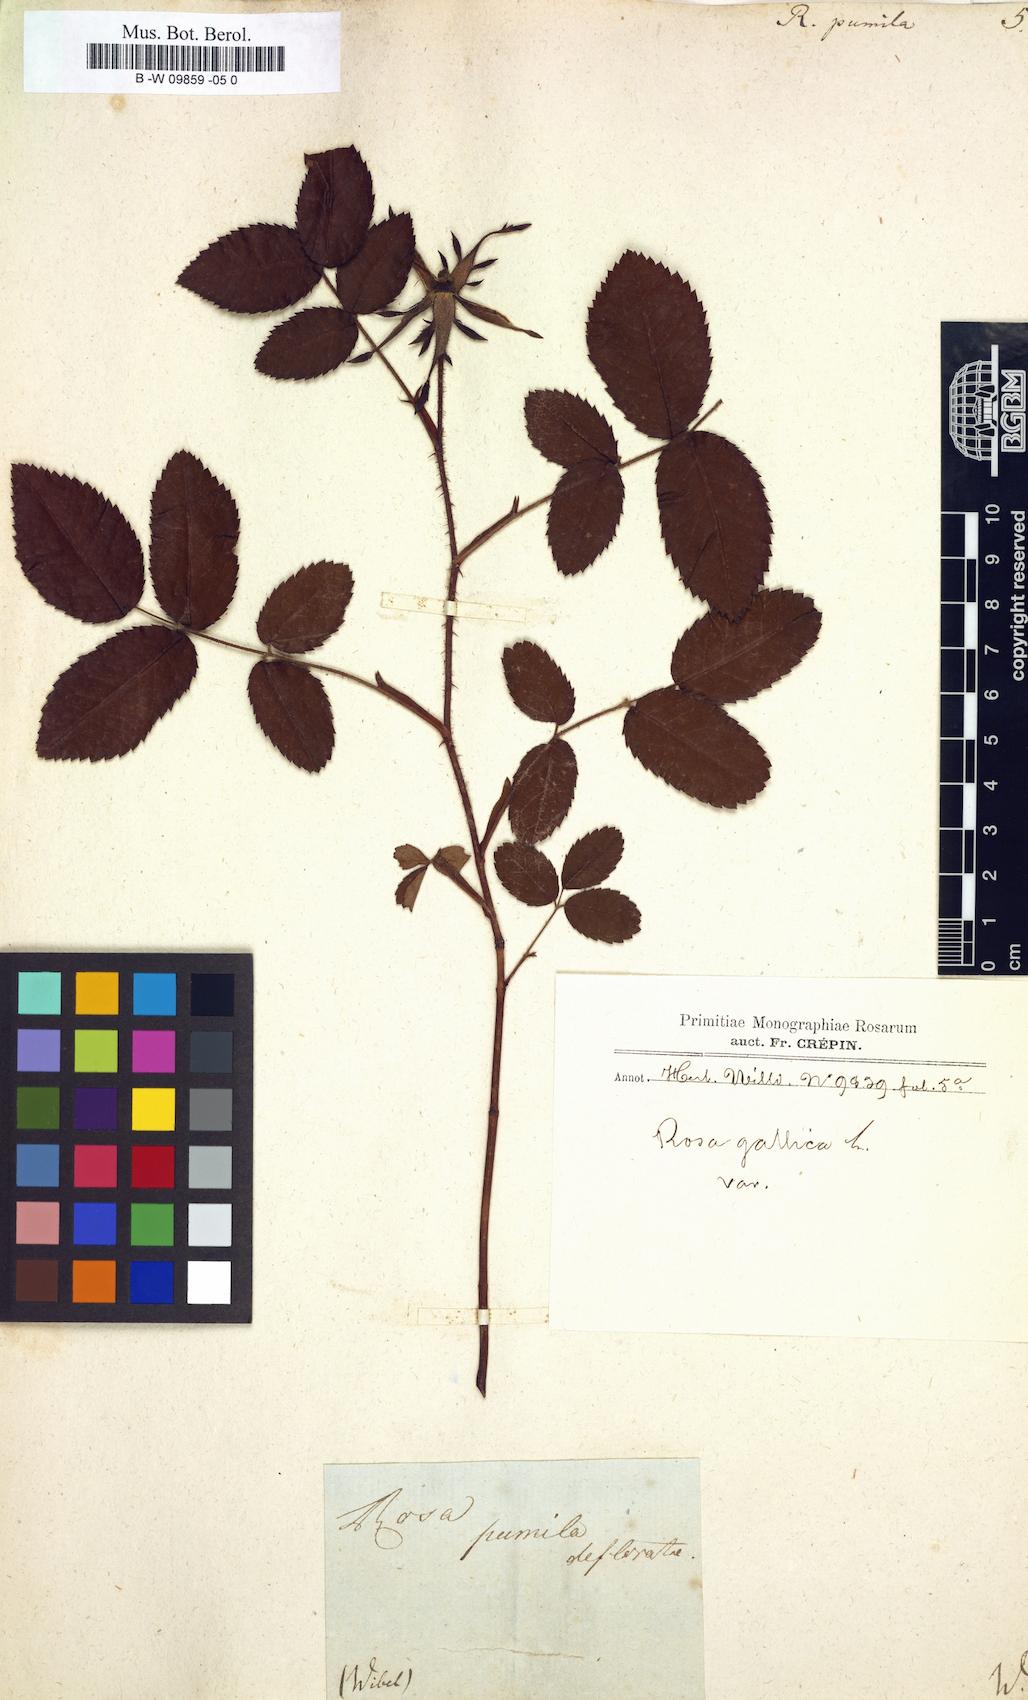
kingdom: Plantae
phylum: Tracheophyta
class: Magnoliopsida
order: Rosales
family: Rosaceae
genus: Rosa
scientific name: Rosa gallica
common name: French rose
